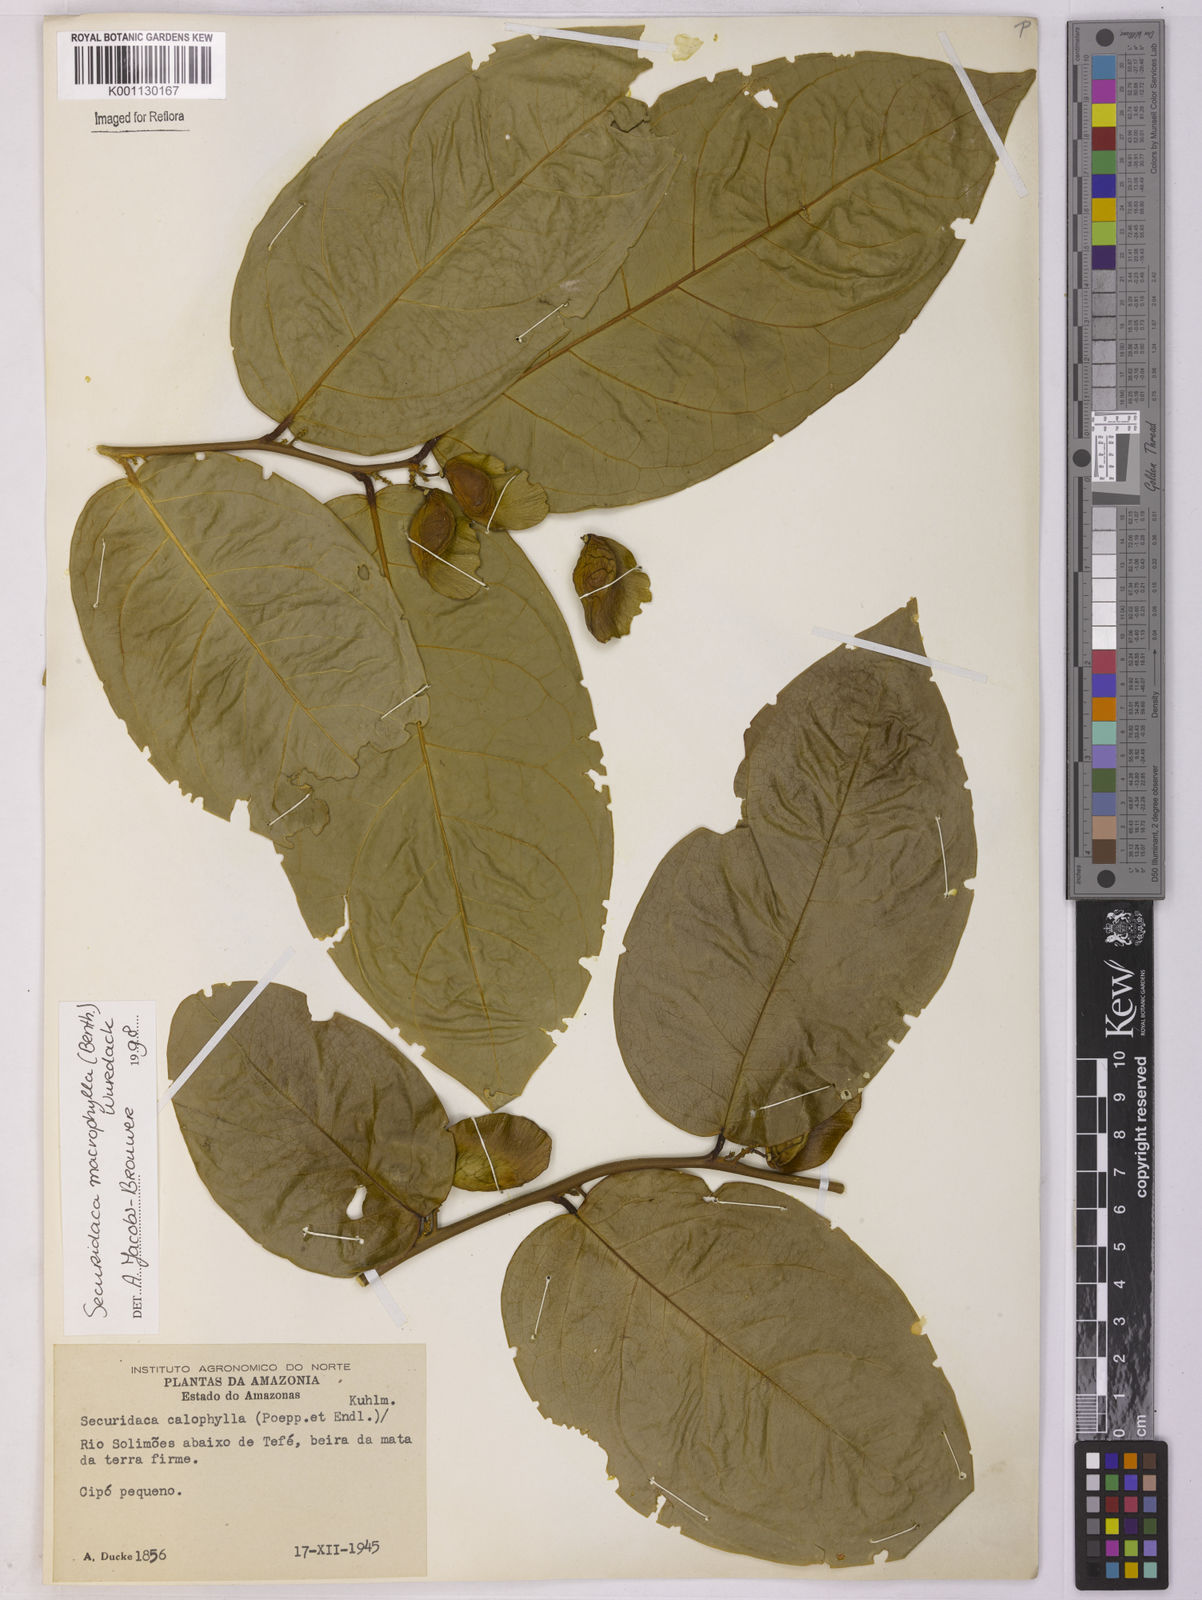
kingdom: Plantae
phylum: Tracheophyta
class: Magnoliopsida
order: Fabales
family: Polygalaceae
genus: Securidaca
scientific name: Securidaca calophylla
